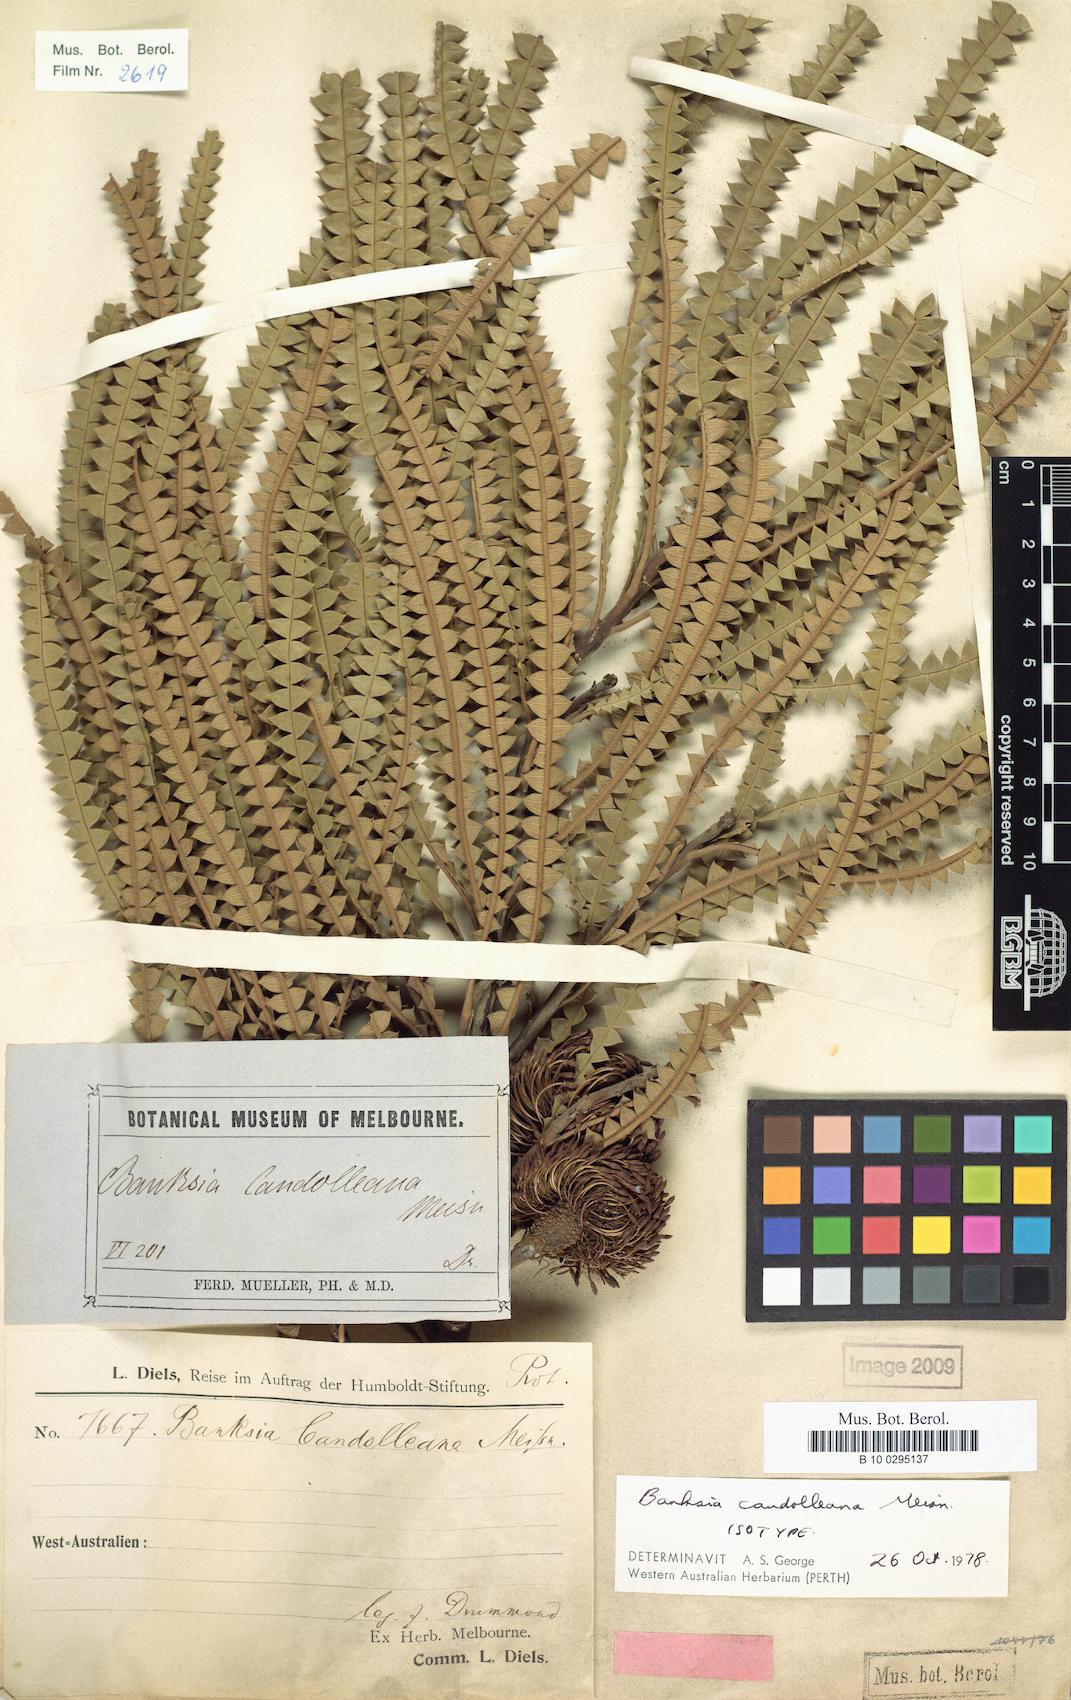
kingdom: Plantae
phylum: Tracheophyta
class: Magnoliopsida
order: Proteales
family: Proteaceae
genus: Banksia
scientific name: Banksia candolleana
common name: Propeller banksia
